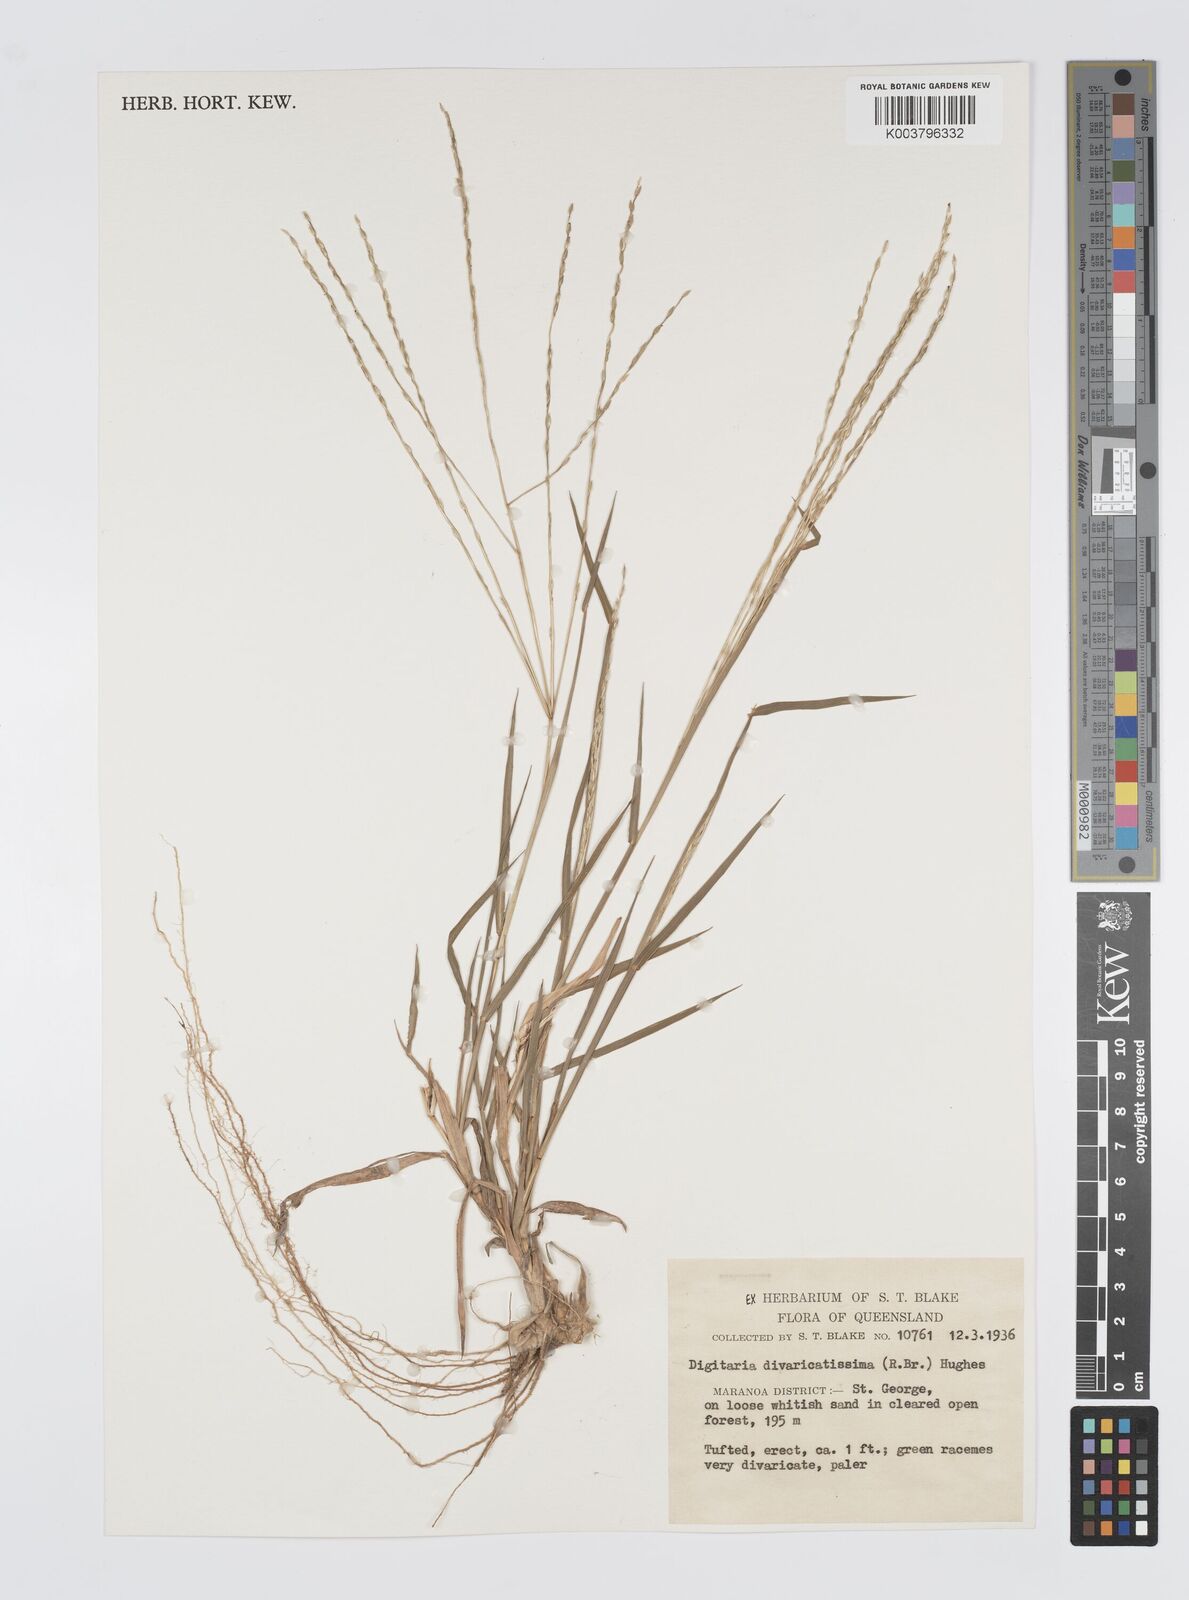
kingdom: Plantae
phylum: Tracheophyta
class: Liliopsida
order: Poales
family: Poaceae
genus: Digitaria
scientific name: Digitaria spec
